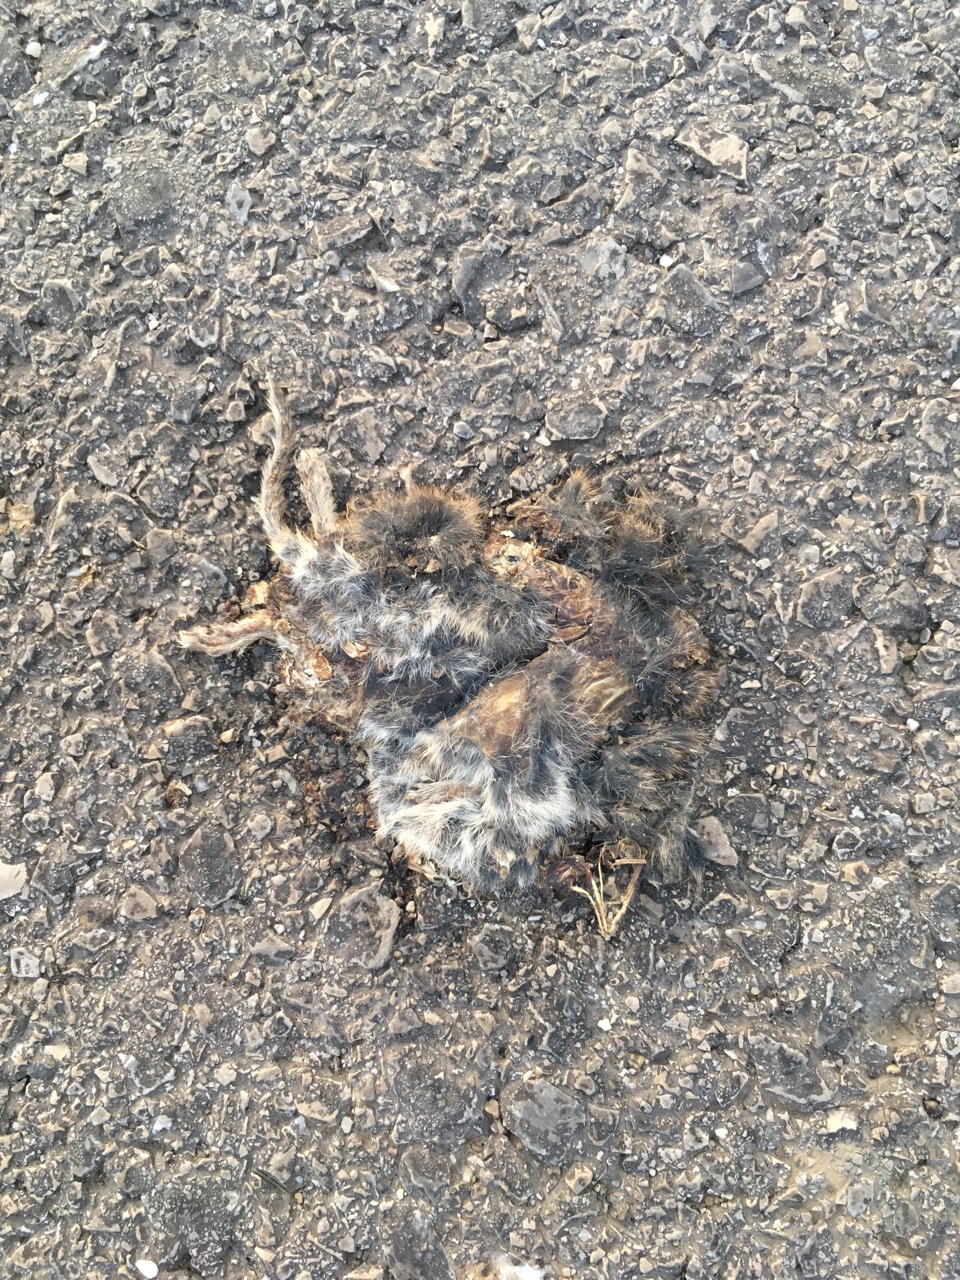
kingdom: Animalia
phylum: Chordata
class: Mammalia
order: Rodentia
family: Cricetidae
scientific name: Cricetidae
